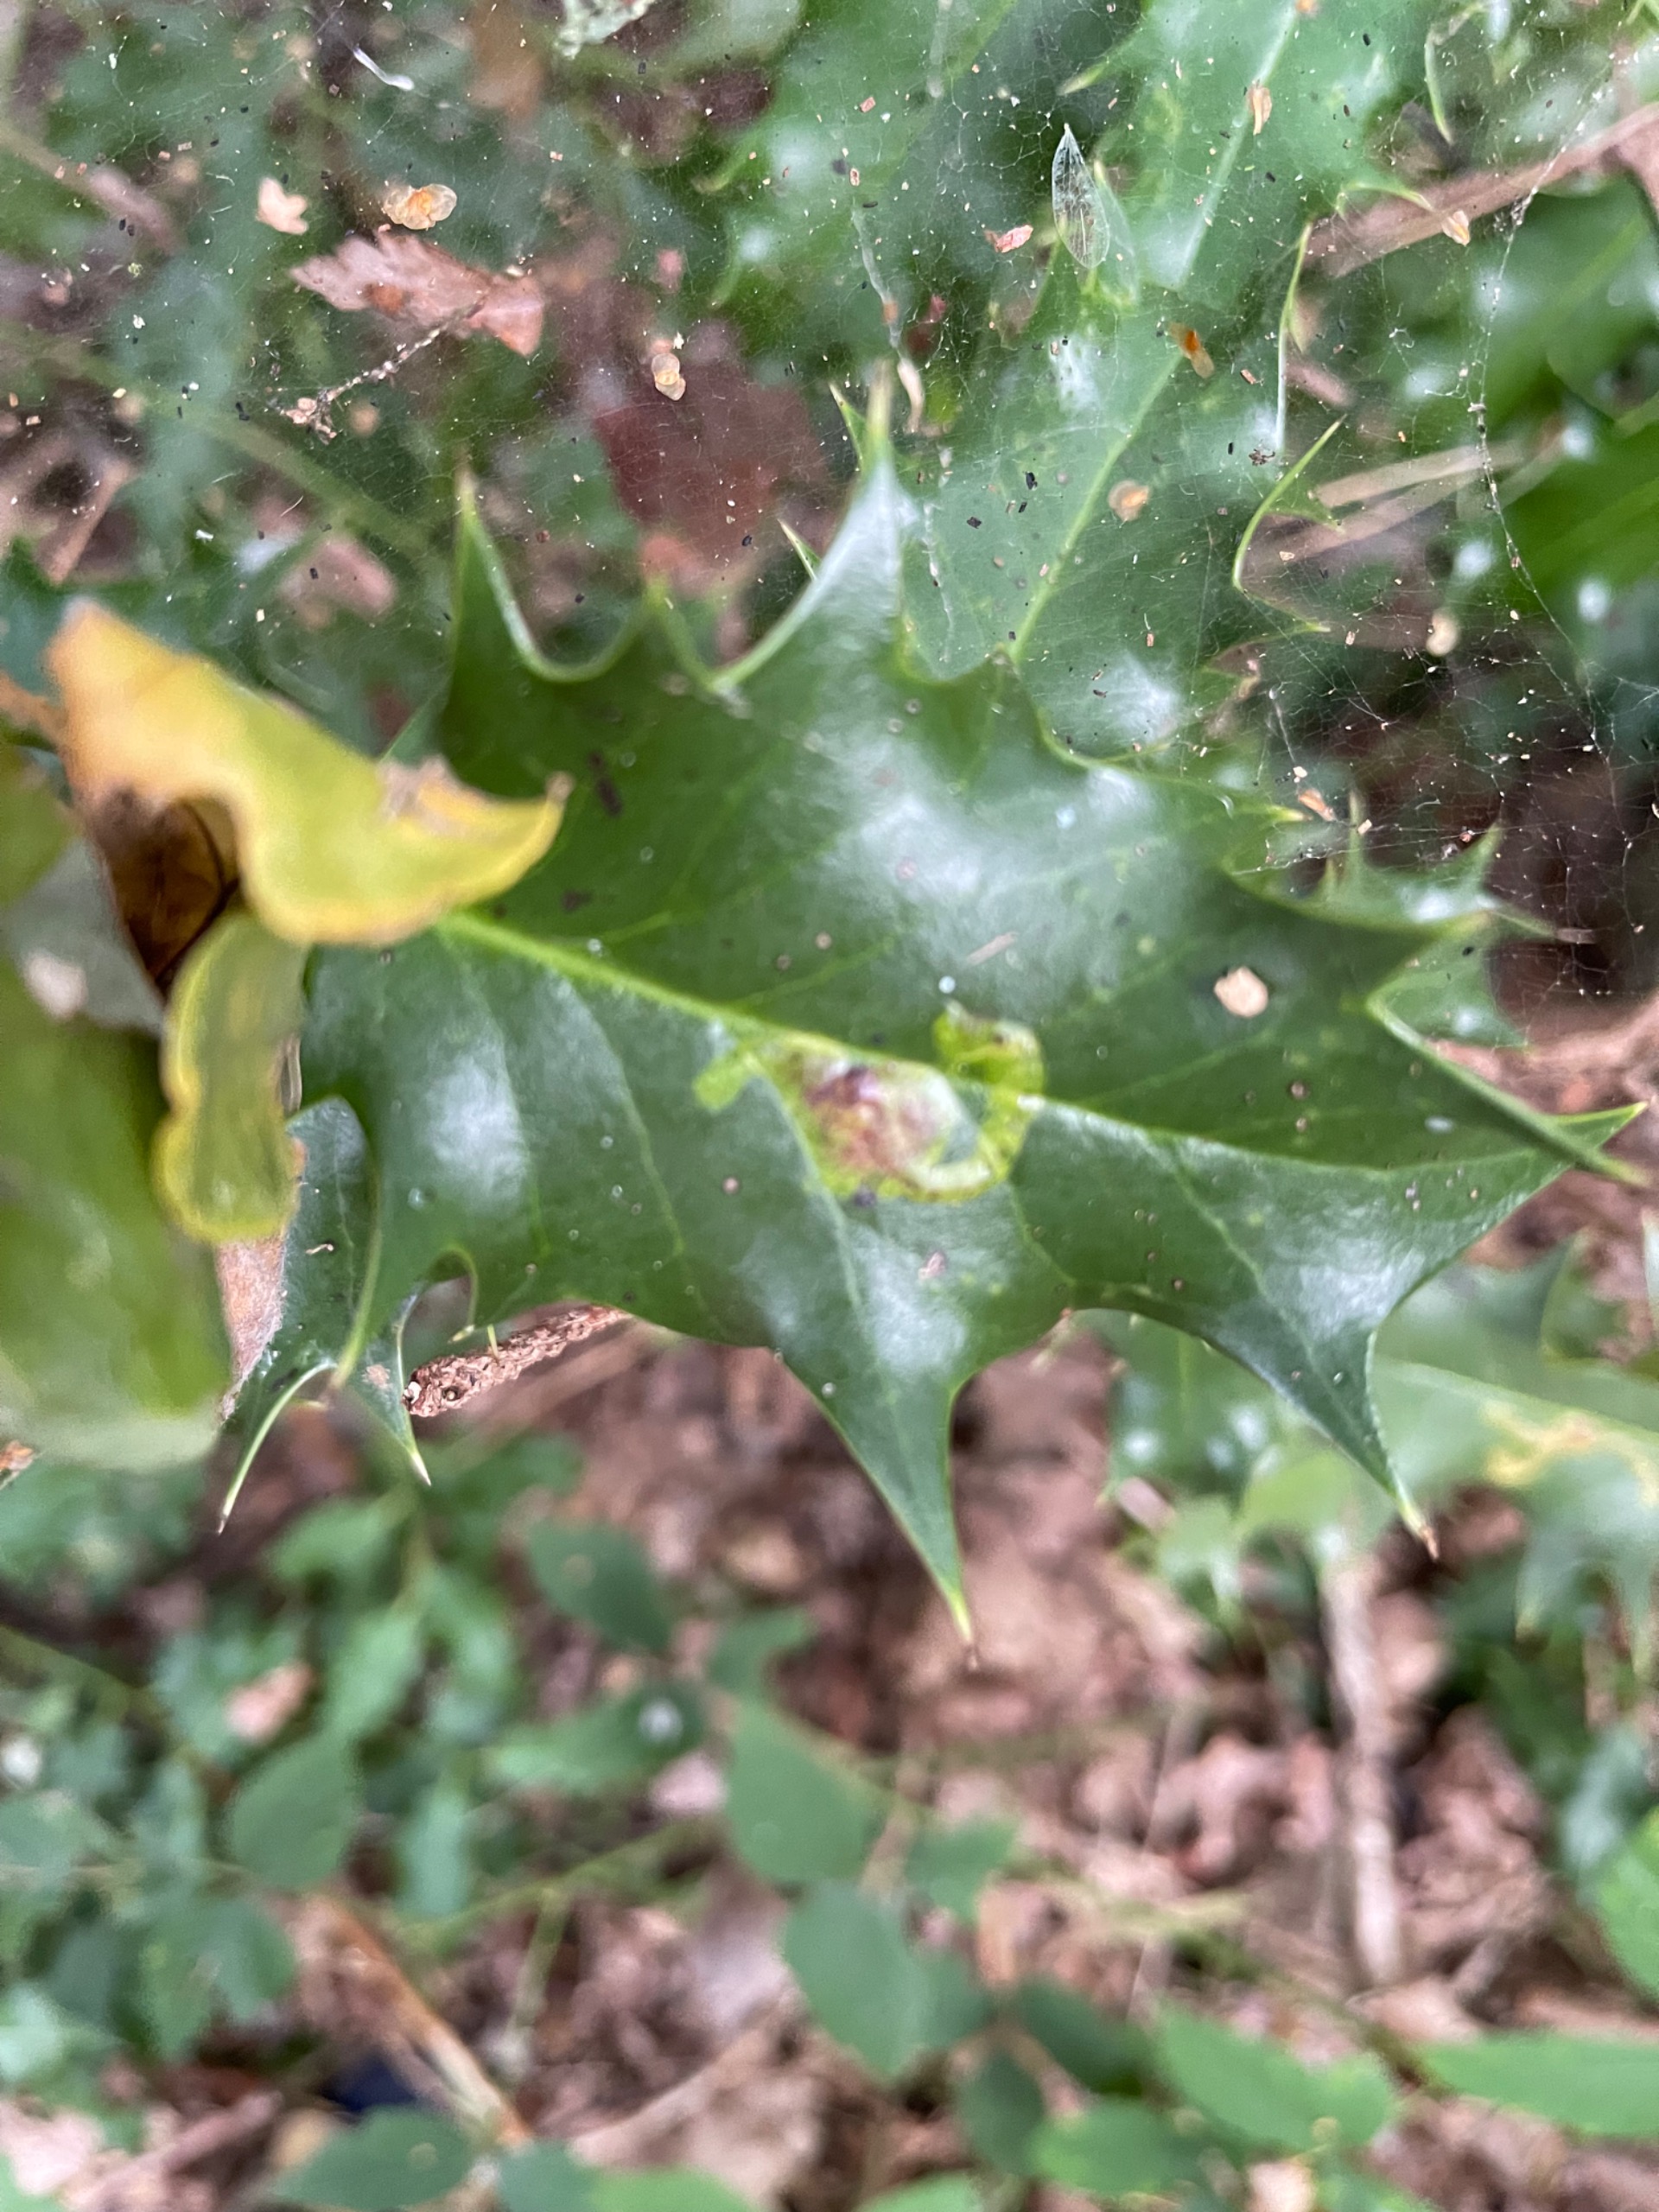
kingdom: Animalia
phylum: Arthropoda
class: Insecta
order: Diptera
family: Agromyzidae
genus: Phytomyza
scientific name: Phytomyza ilicis
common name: Kristtornminérflue
